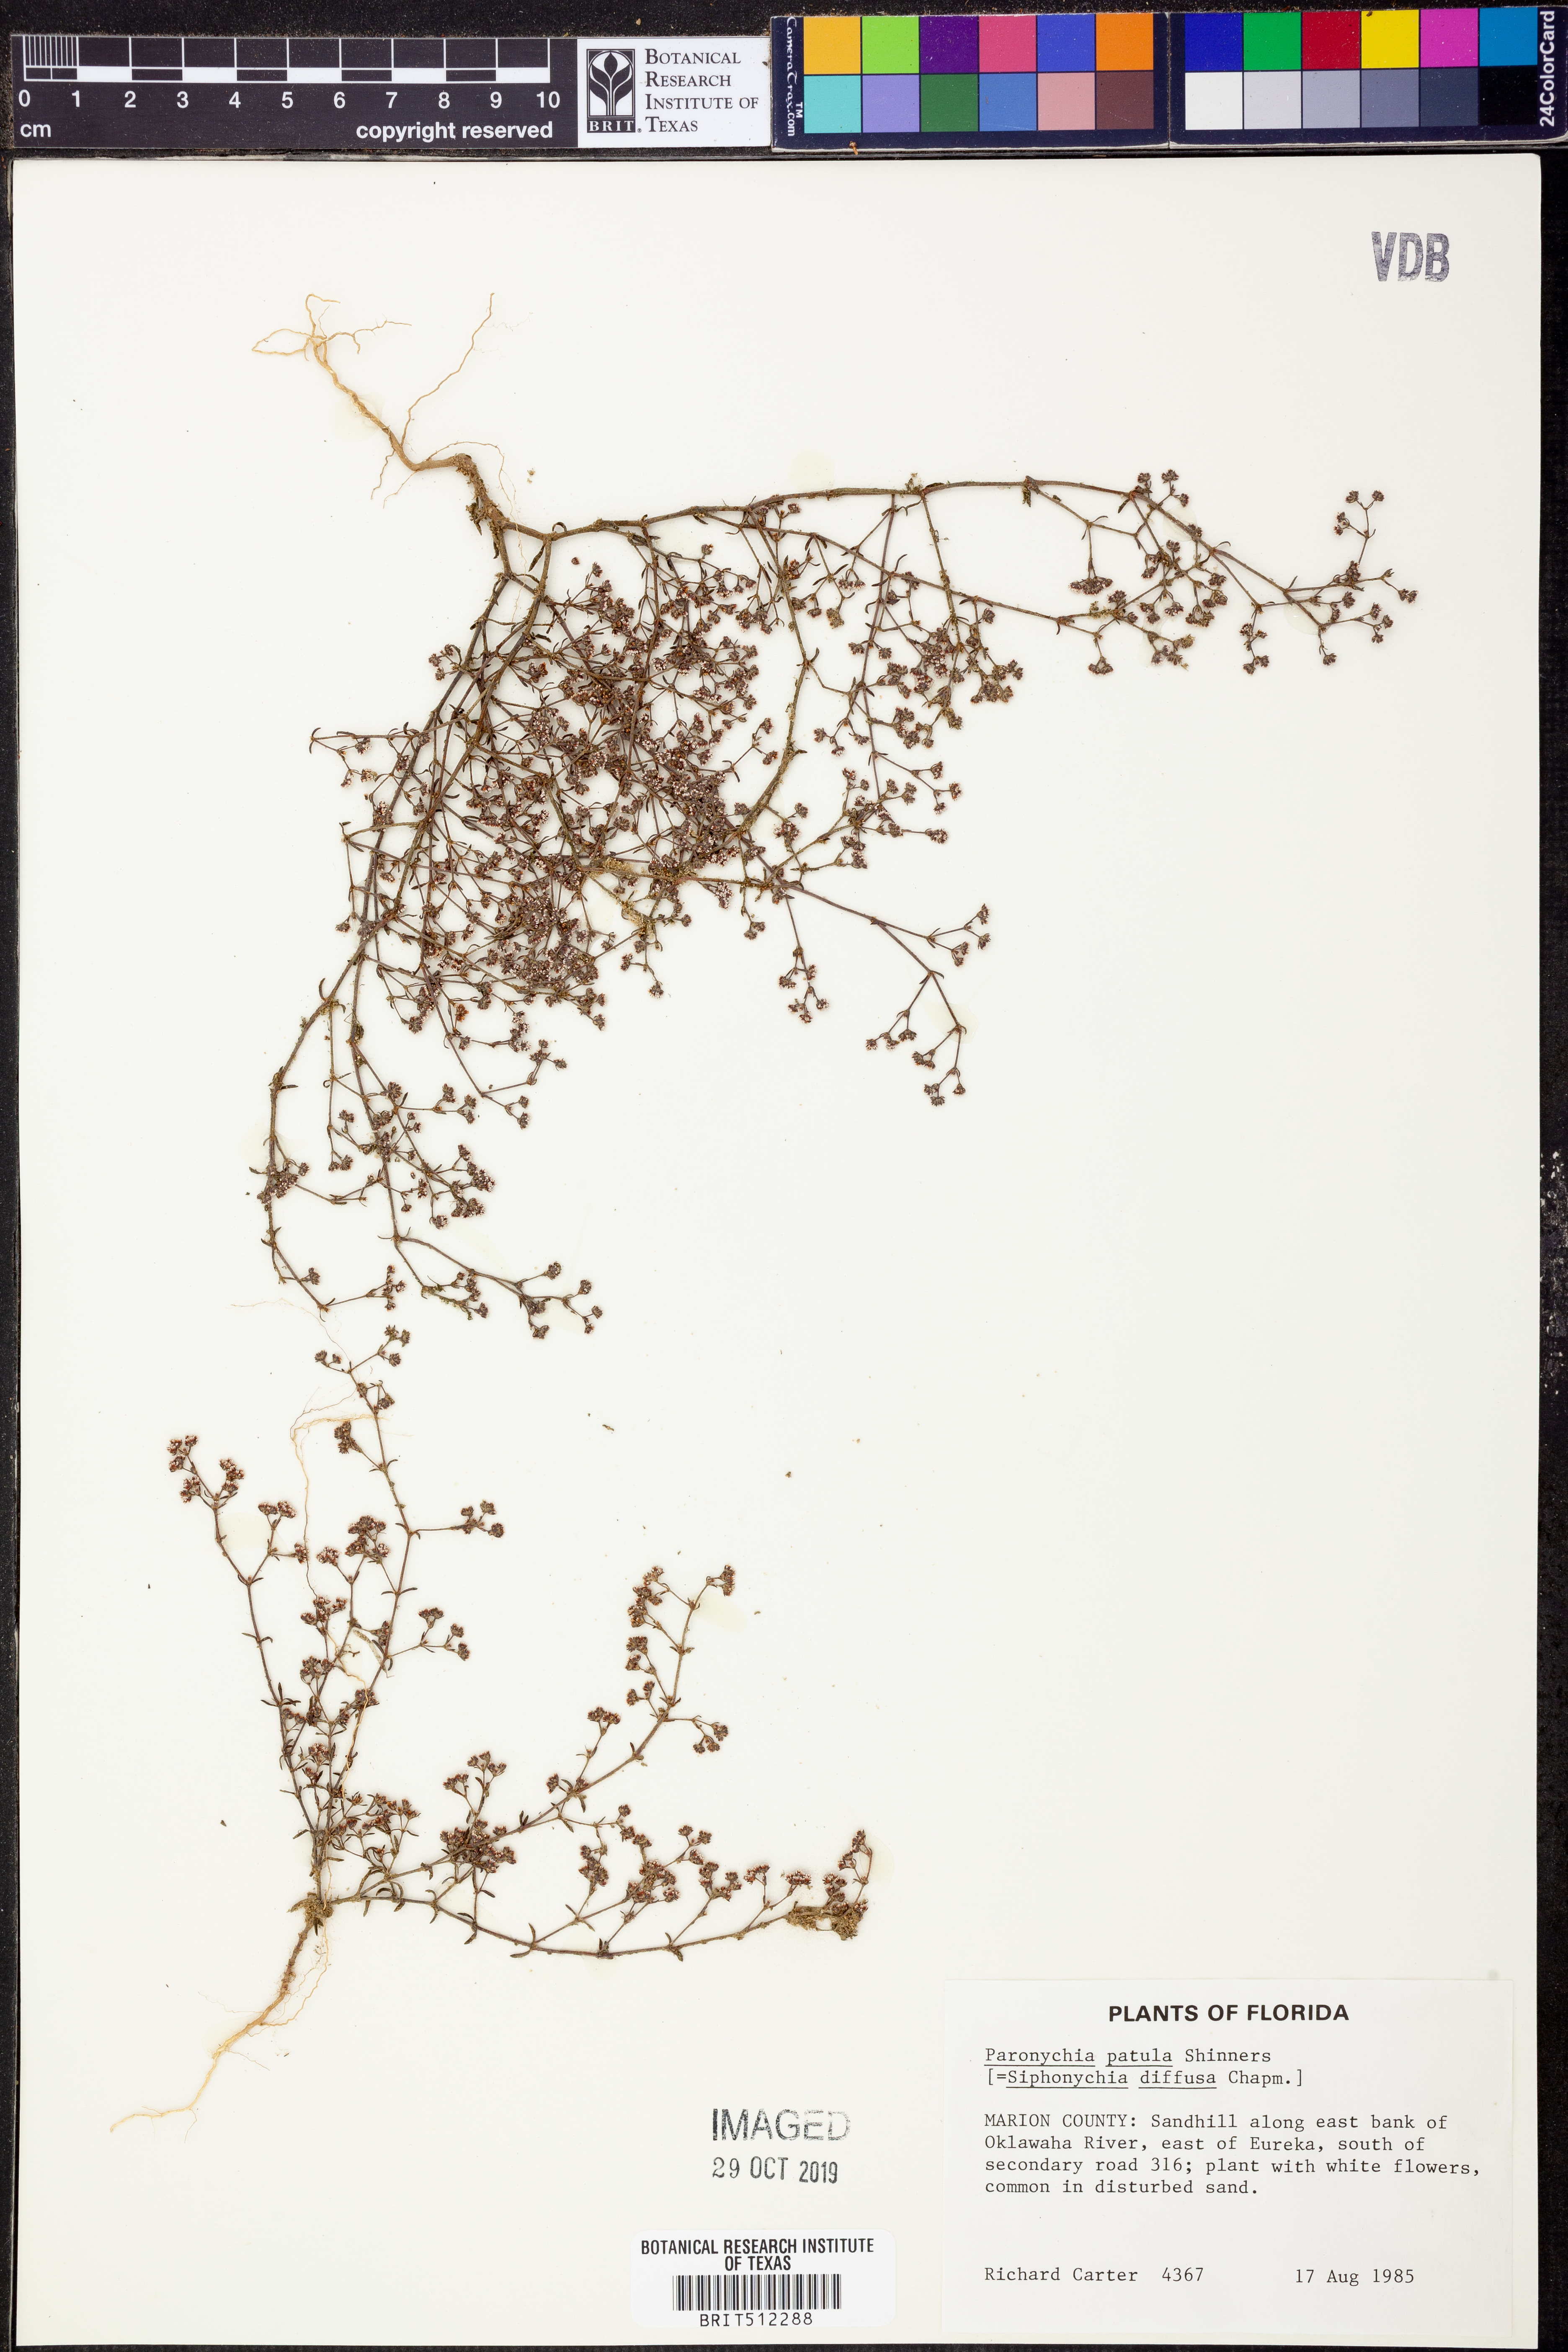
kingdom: Plantae
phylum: Tracheophyta
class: Magnoliopsida
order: Caryophyllales
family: Caryophyllaceae
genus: Paronychia
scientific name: Paronychia patula
